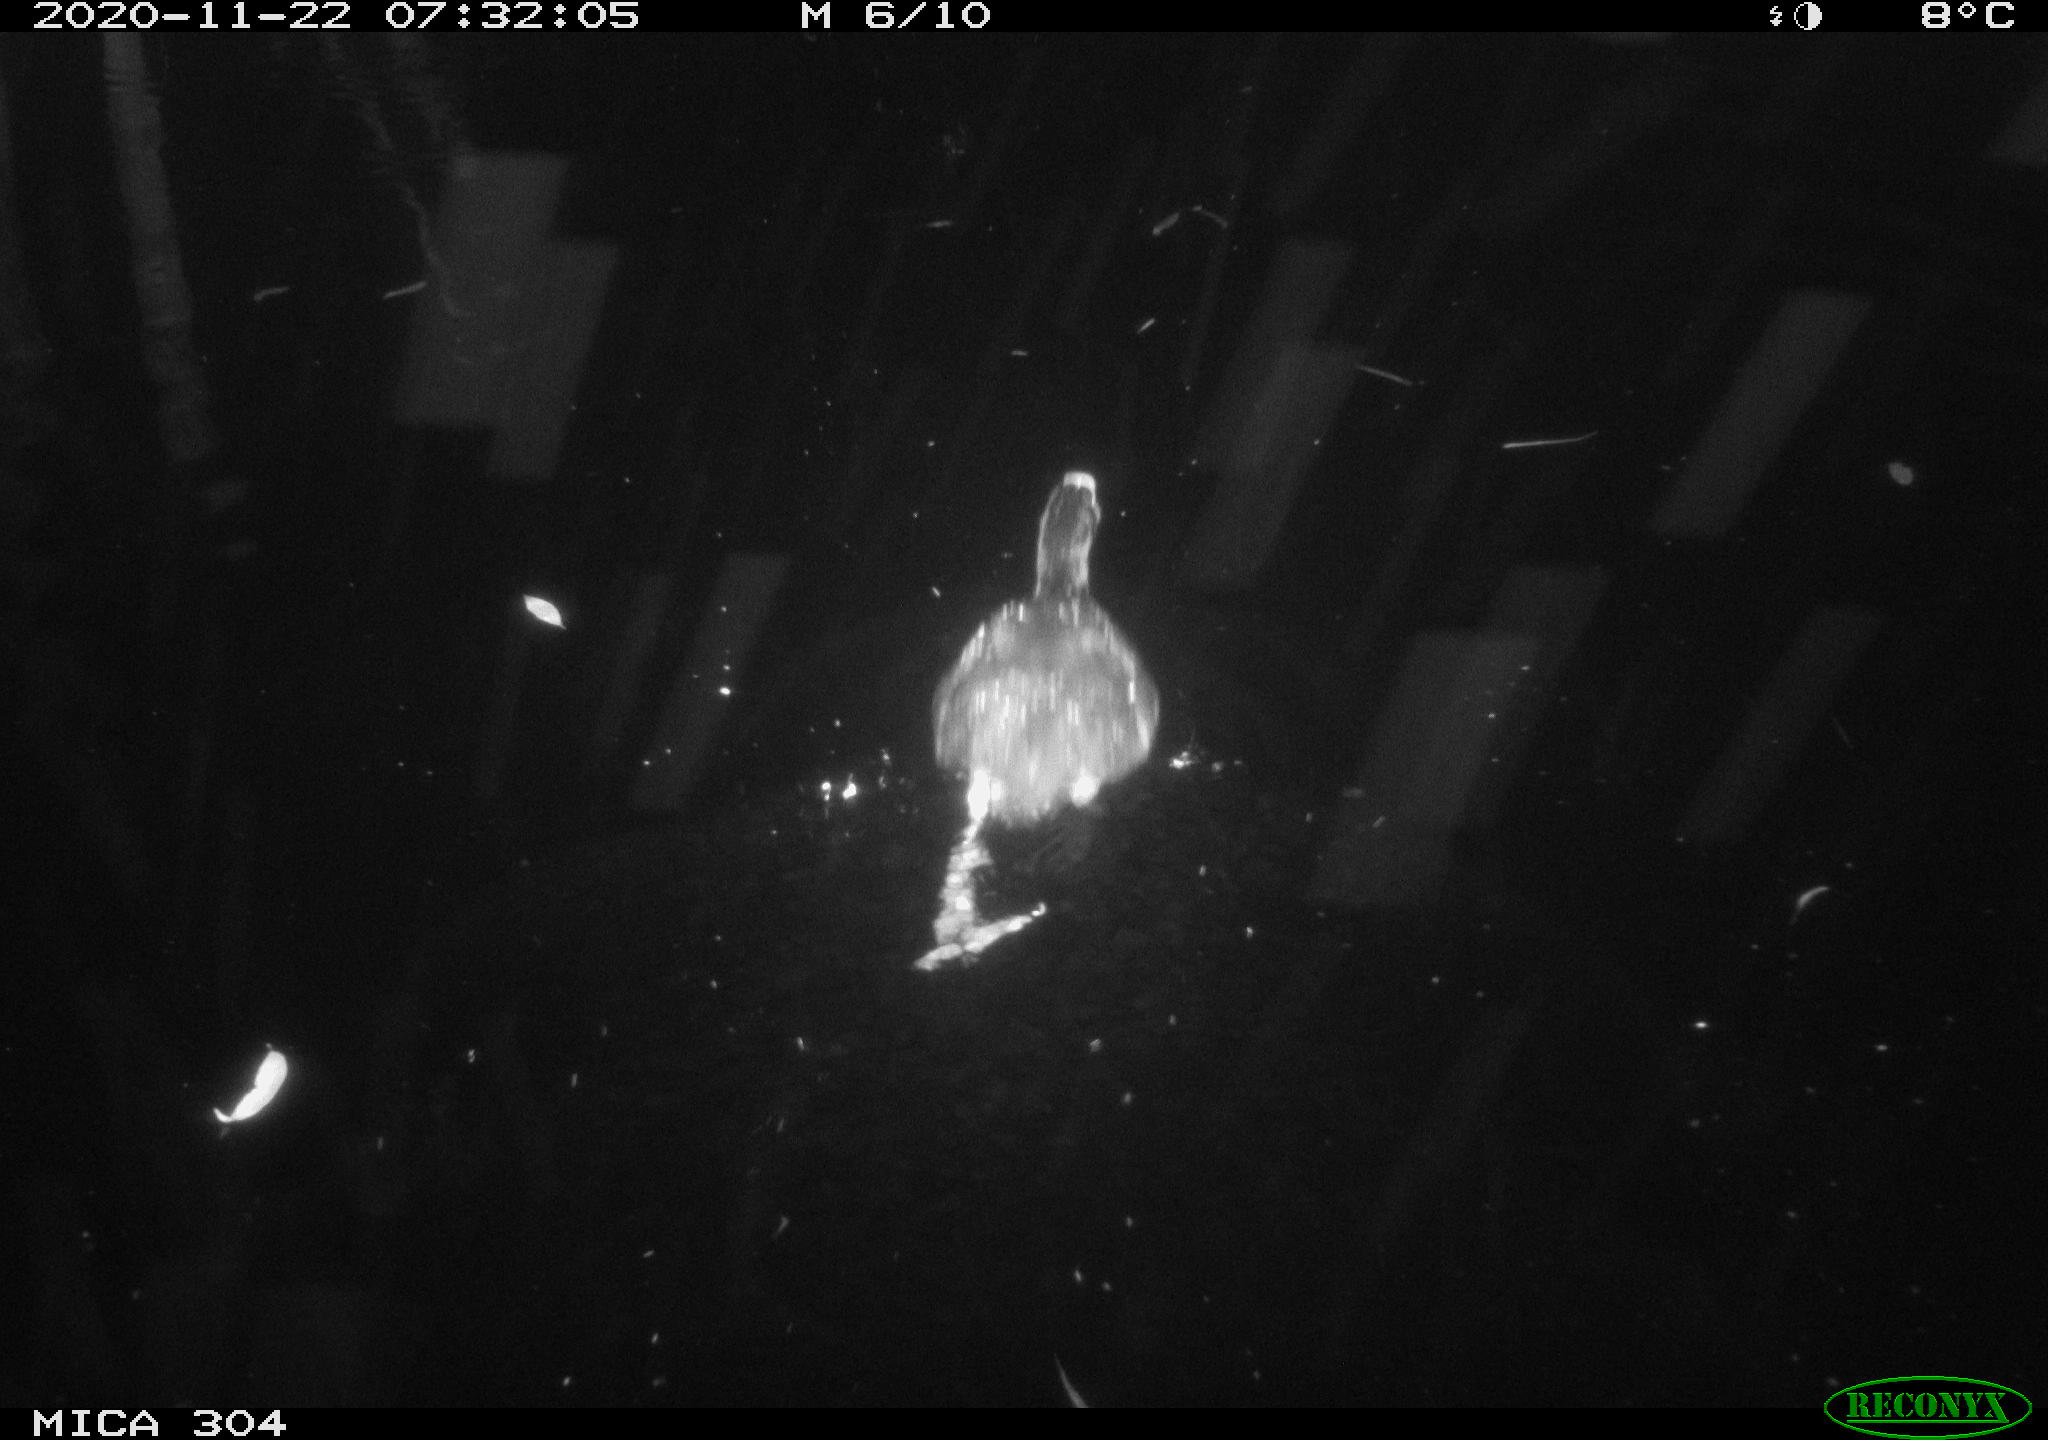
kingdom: Animalia
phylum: Chordata
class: Aves
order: Gruiformes
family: Rallidae
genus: Fulica
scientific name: Fulica atra
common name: Eurasian coot
